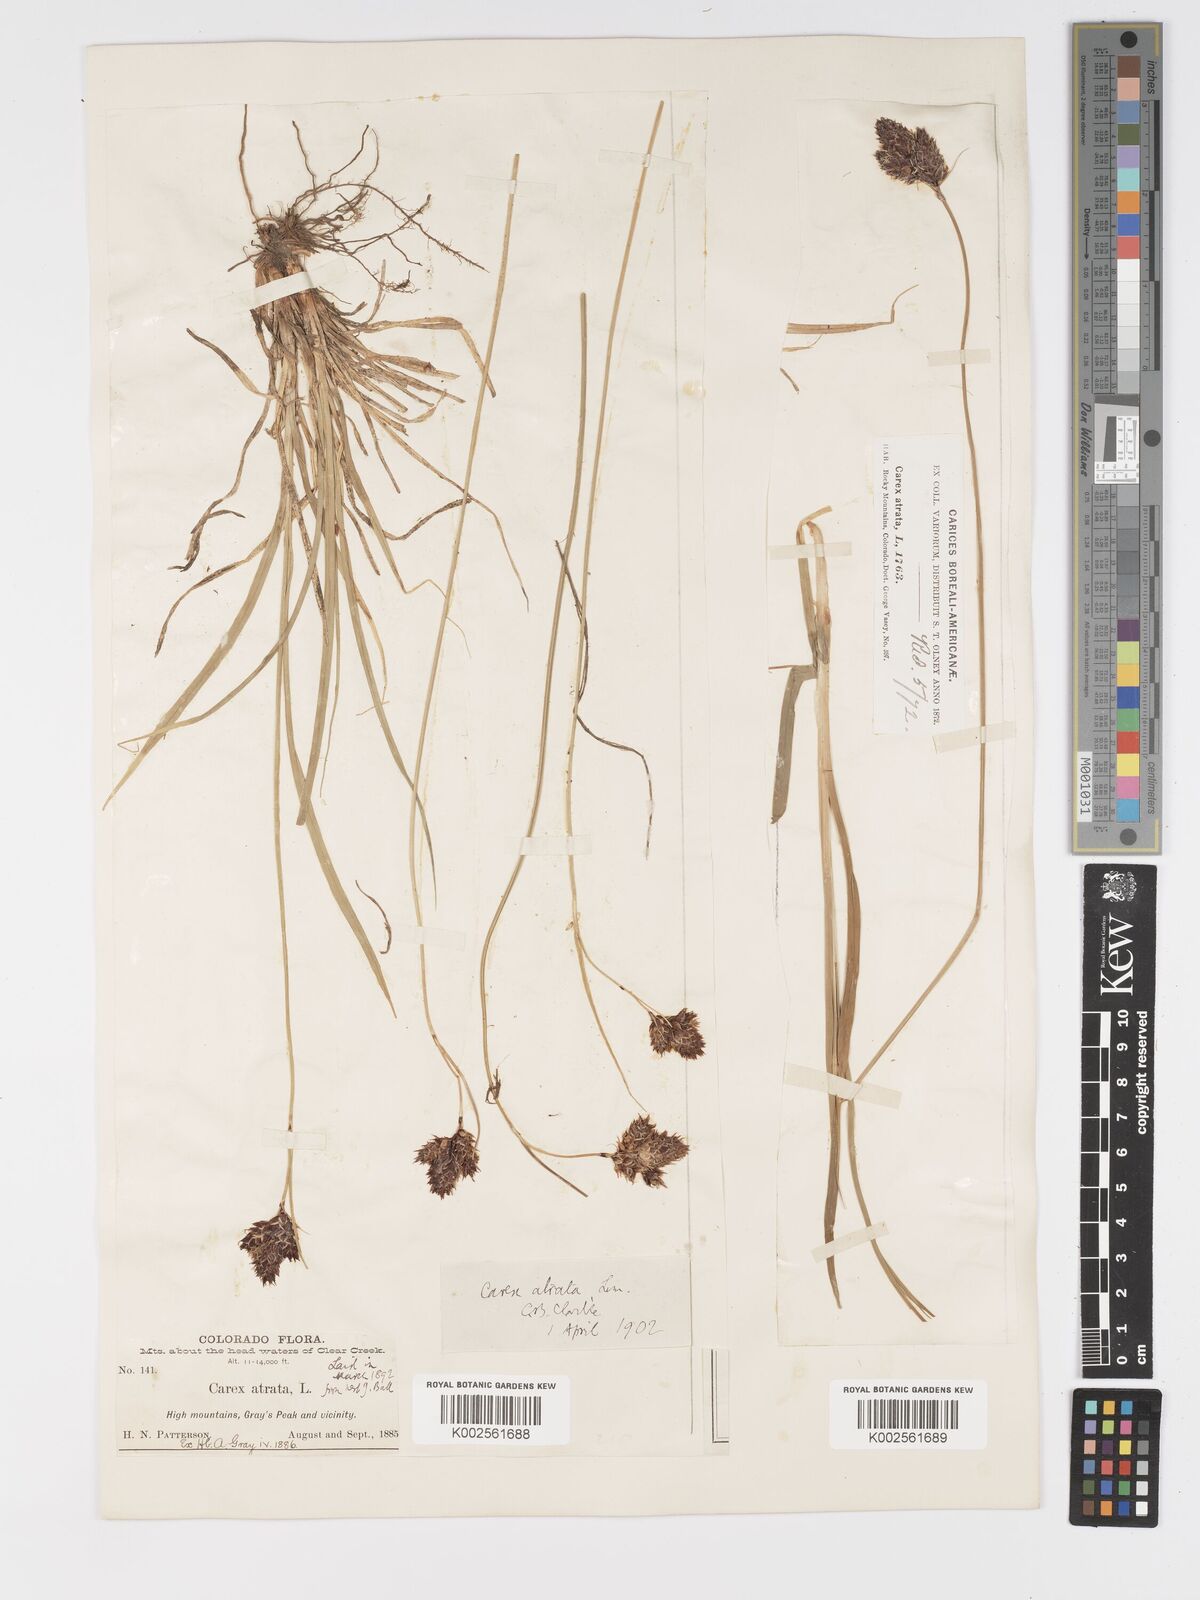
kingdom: Plantae
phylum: Tracheophyta
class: Liliopsida
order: Poales
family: Cyperaceae
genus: Carex
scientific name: Carex chalciolepis
